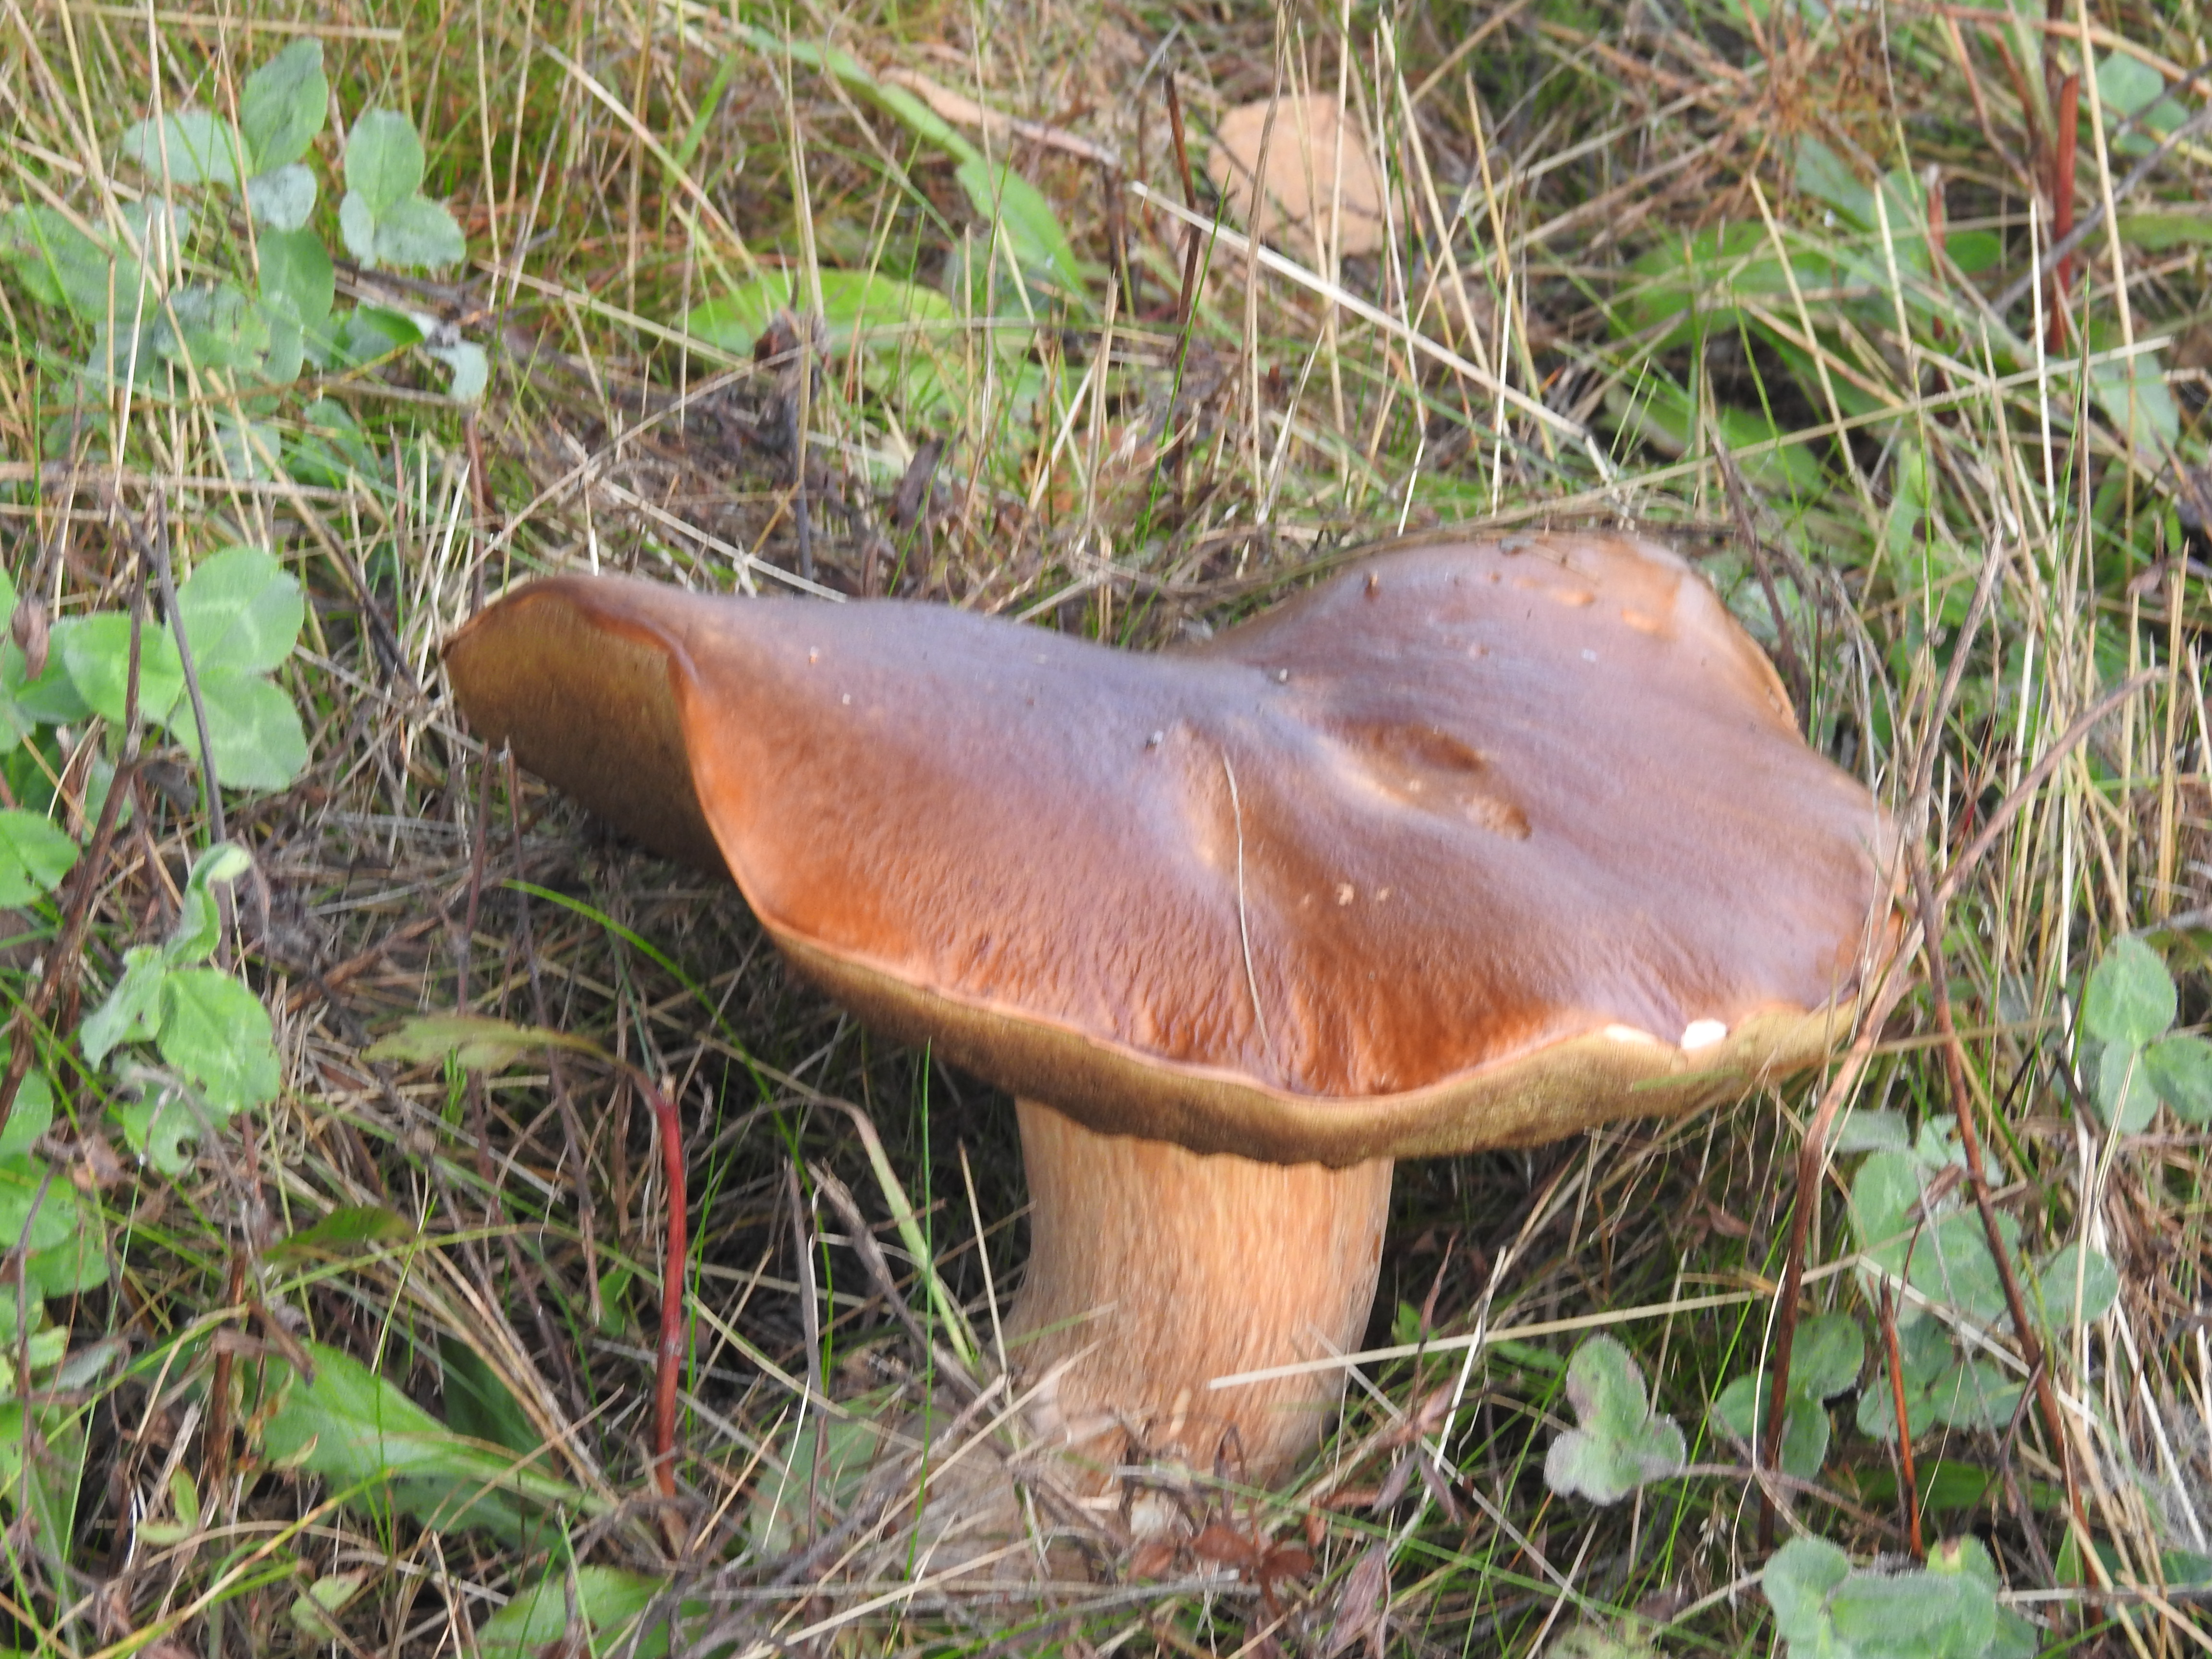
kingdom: Fungi
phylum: Basidiomycota
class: Agaricomycetes
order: Boletales
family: Boletaceae
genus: Boletus
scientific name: Boletus edulis
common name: Cep
